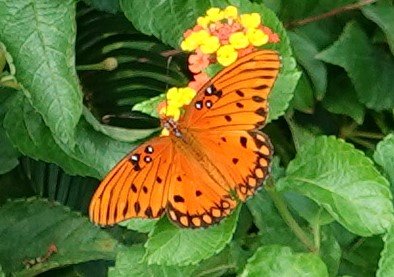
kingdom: Animalia
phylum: Arthropoda
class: Insecta
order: Lepidoptera
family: Nymphalidae
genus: Dione
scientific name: Dione vanillae
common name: Gulf Fritillary
